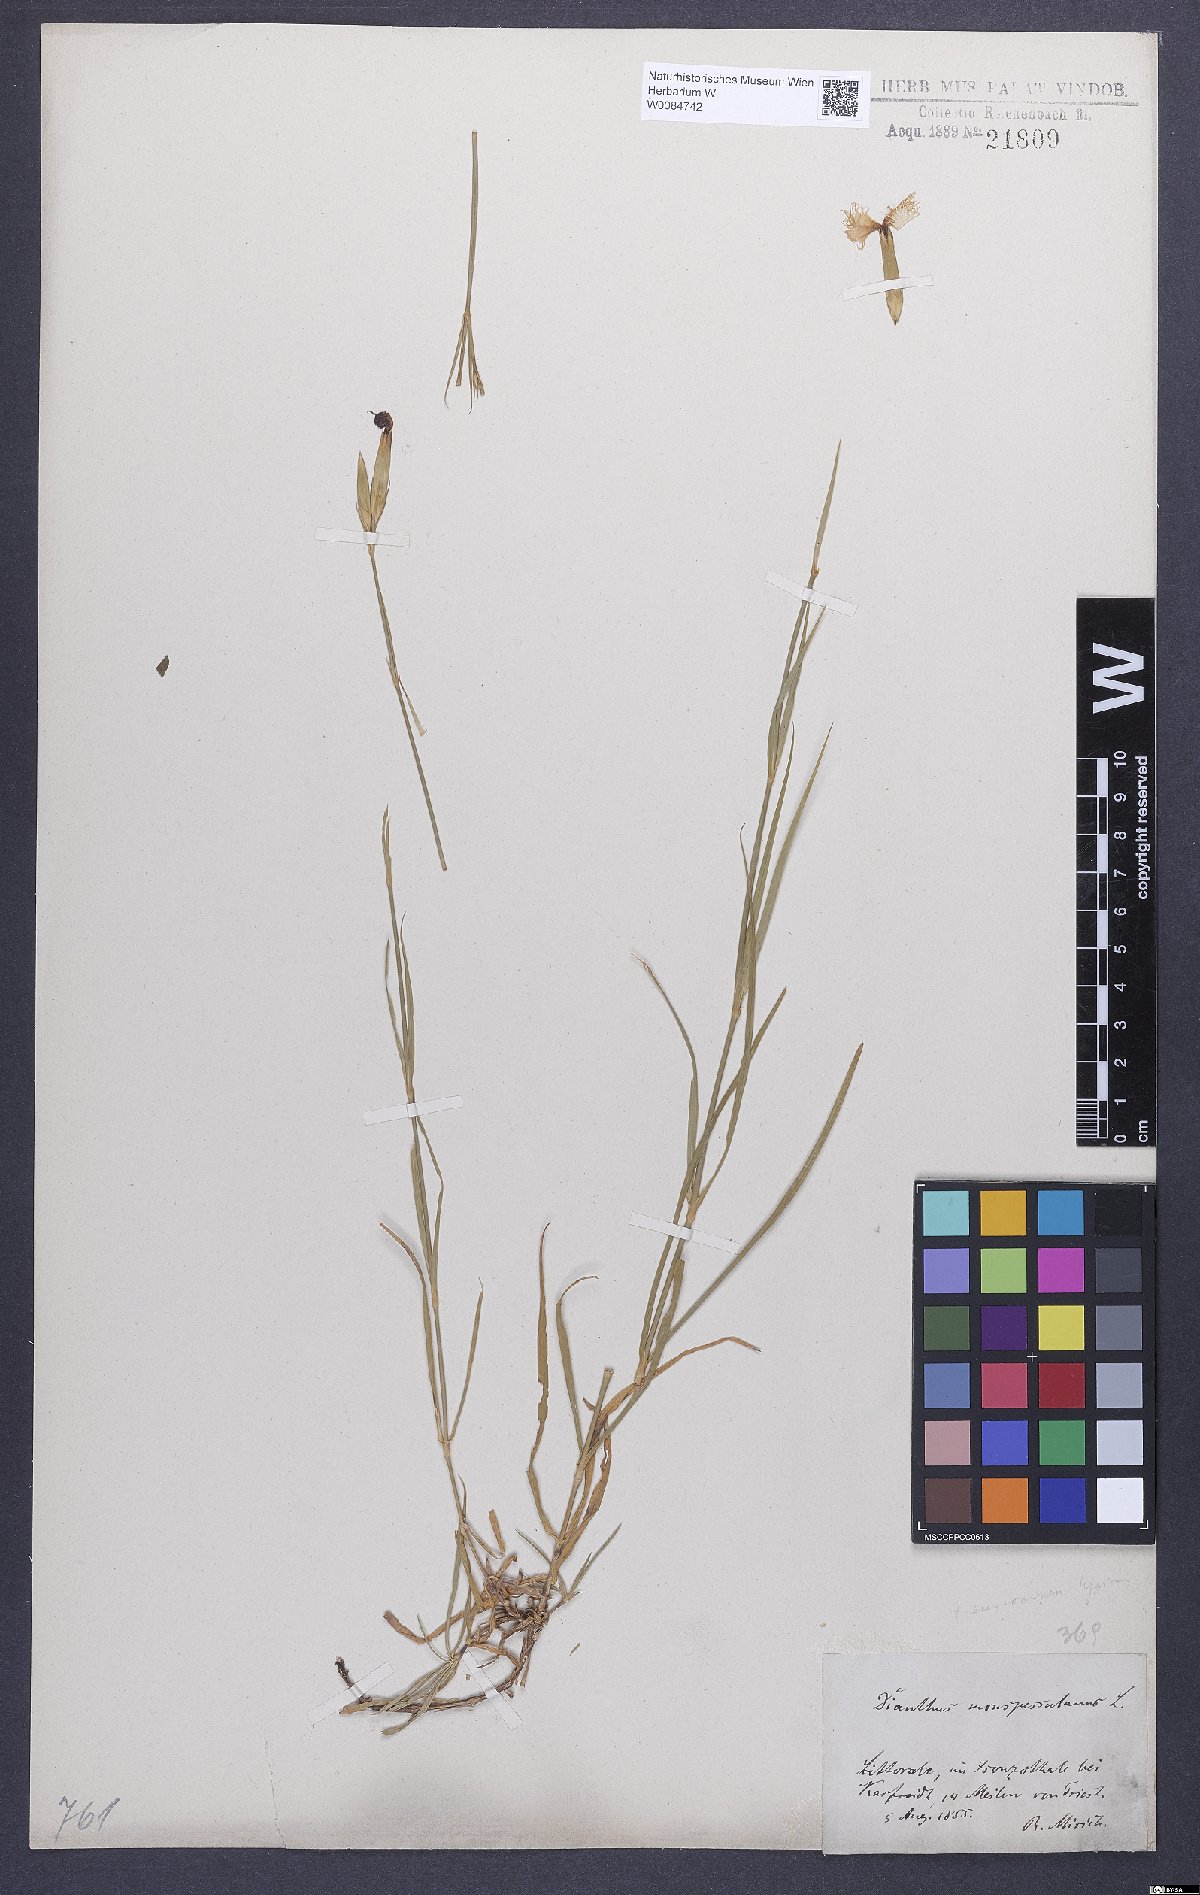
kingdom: Plantae
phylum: Tracheophyta
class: Magnoliopsida
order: Caryophyllales
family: Caryophyllaceae
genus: Dianthus
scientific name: Dianthus hyssopifolius
